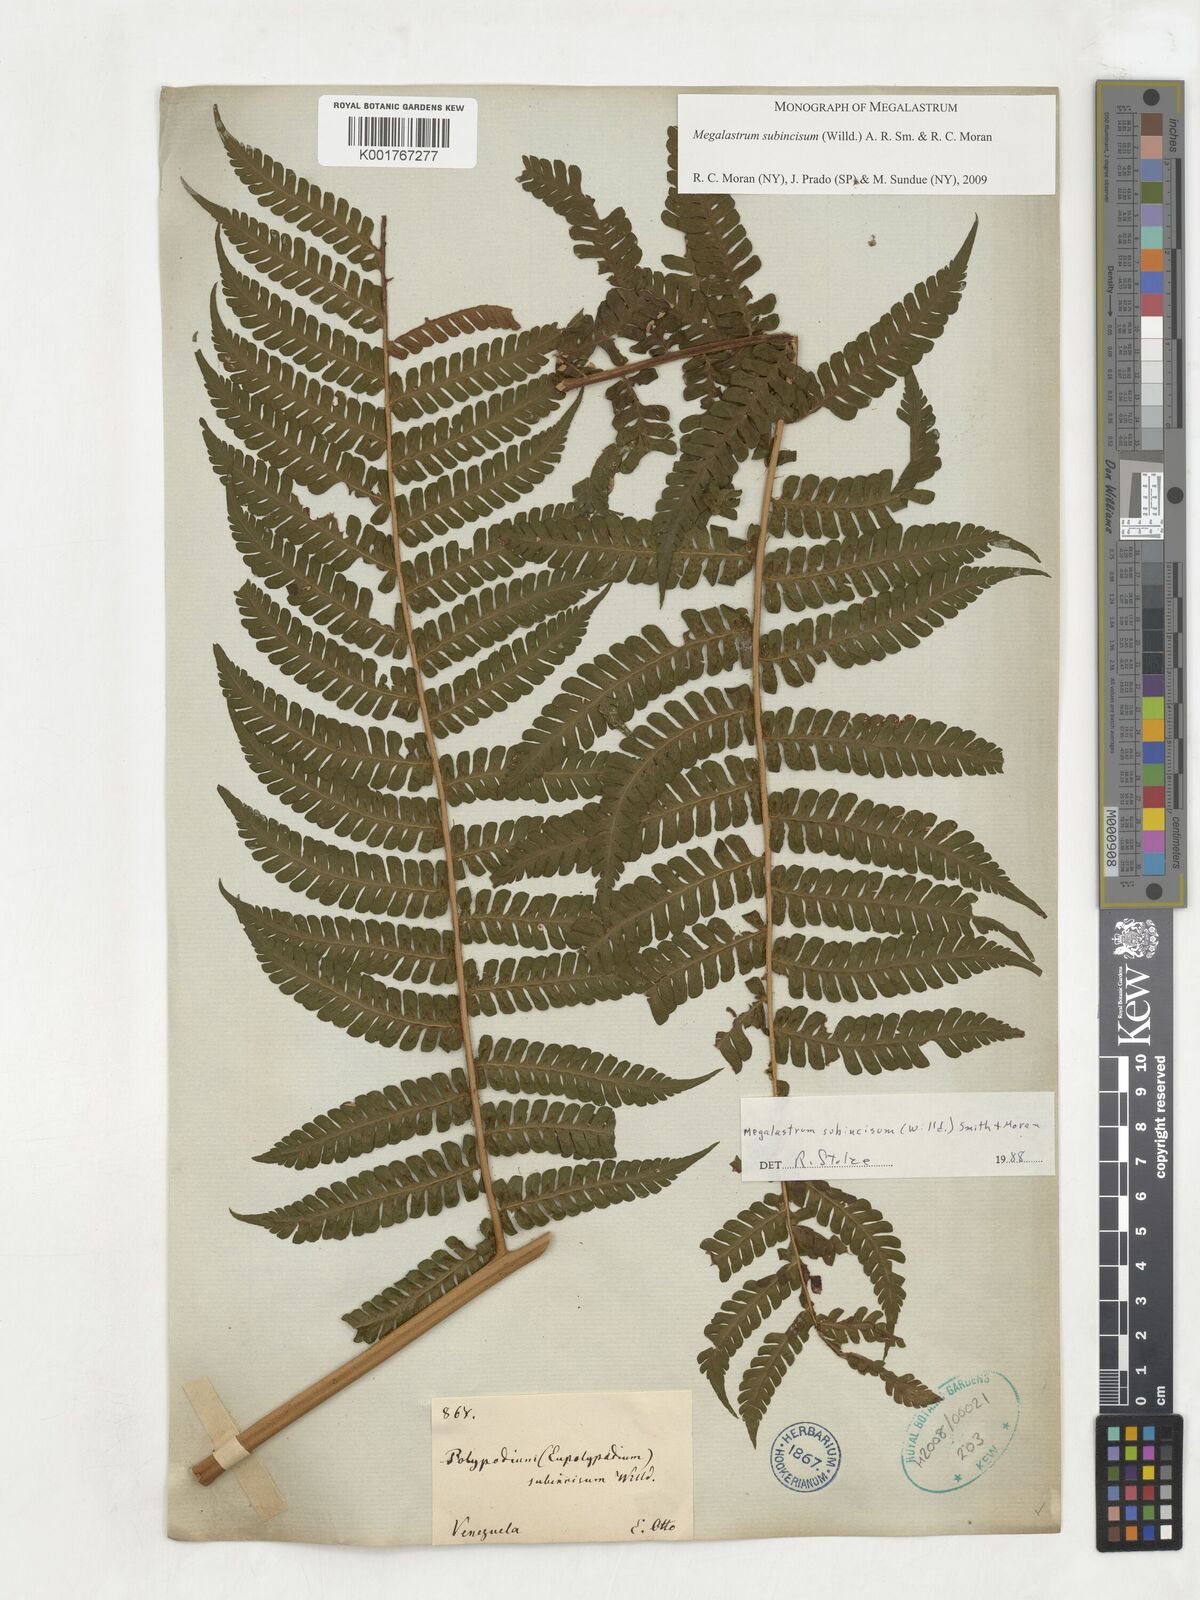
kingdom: Plantae
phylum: Tracheophyta
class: Polypodiopsida
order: Polypodiales
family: Dryopteridaceae
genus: Megalastrum
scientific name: Megalastrum subincisum
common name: Jagleaf junglefern
